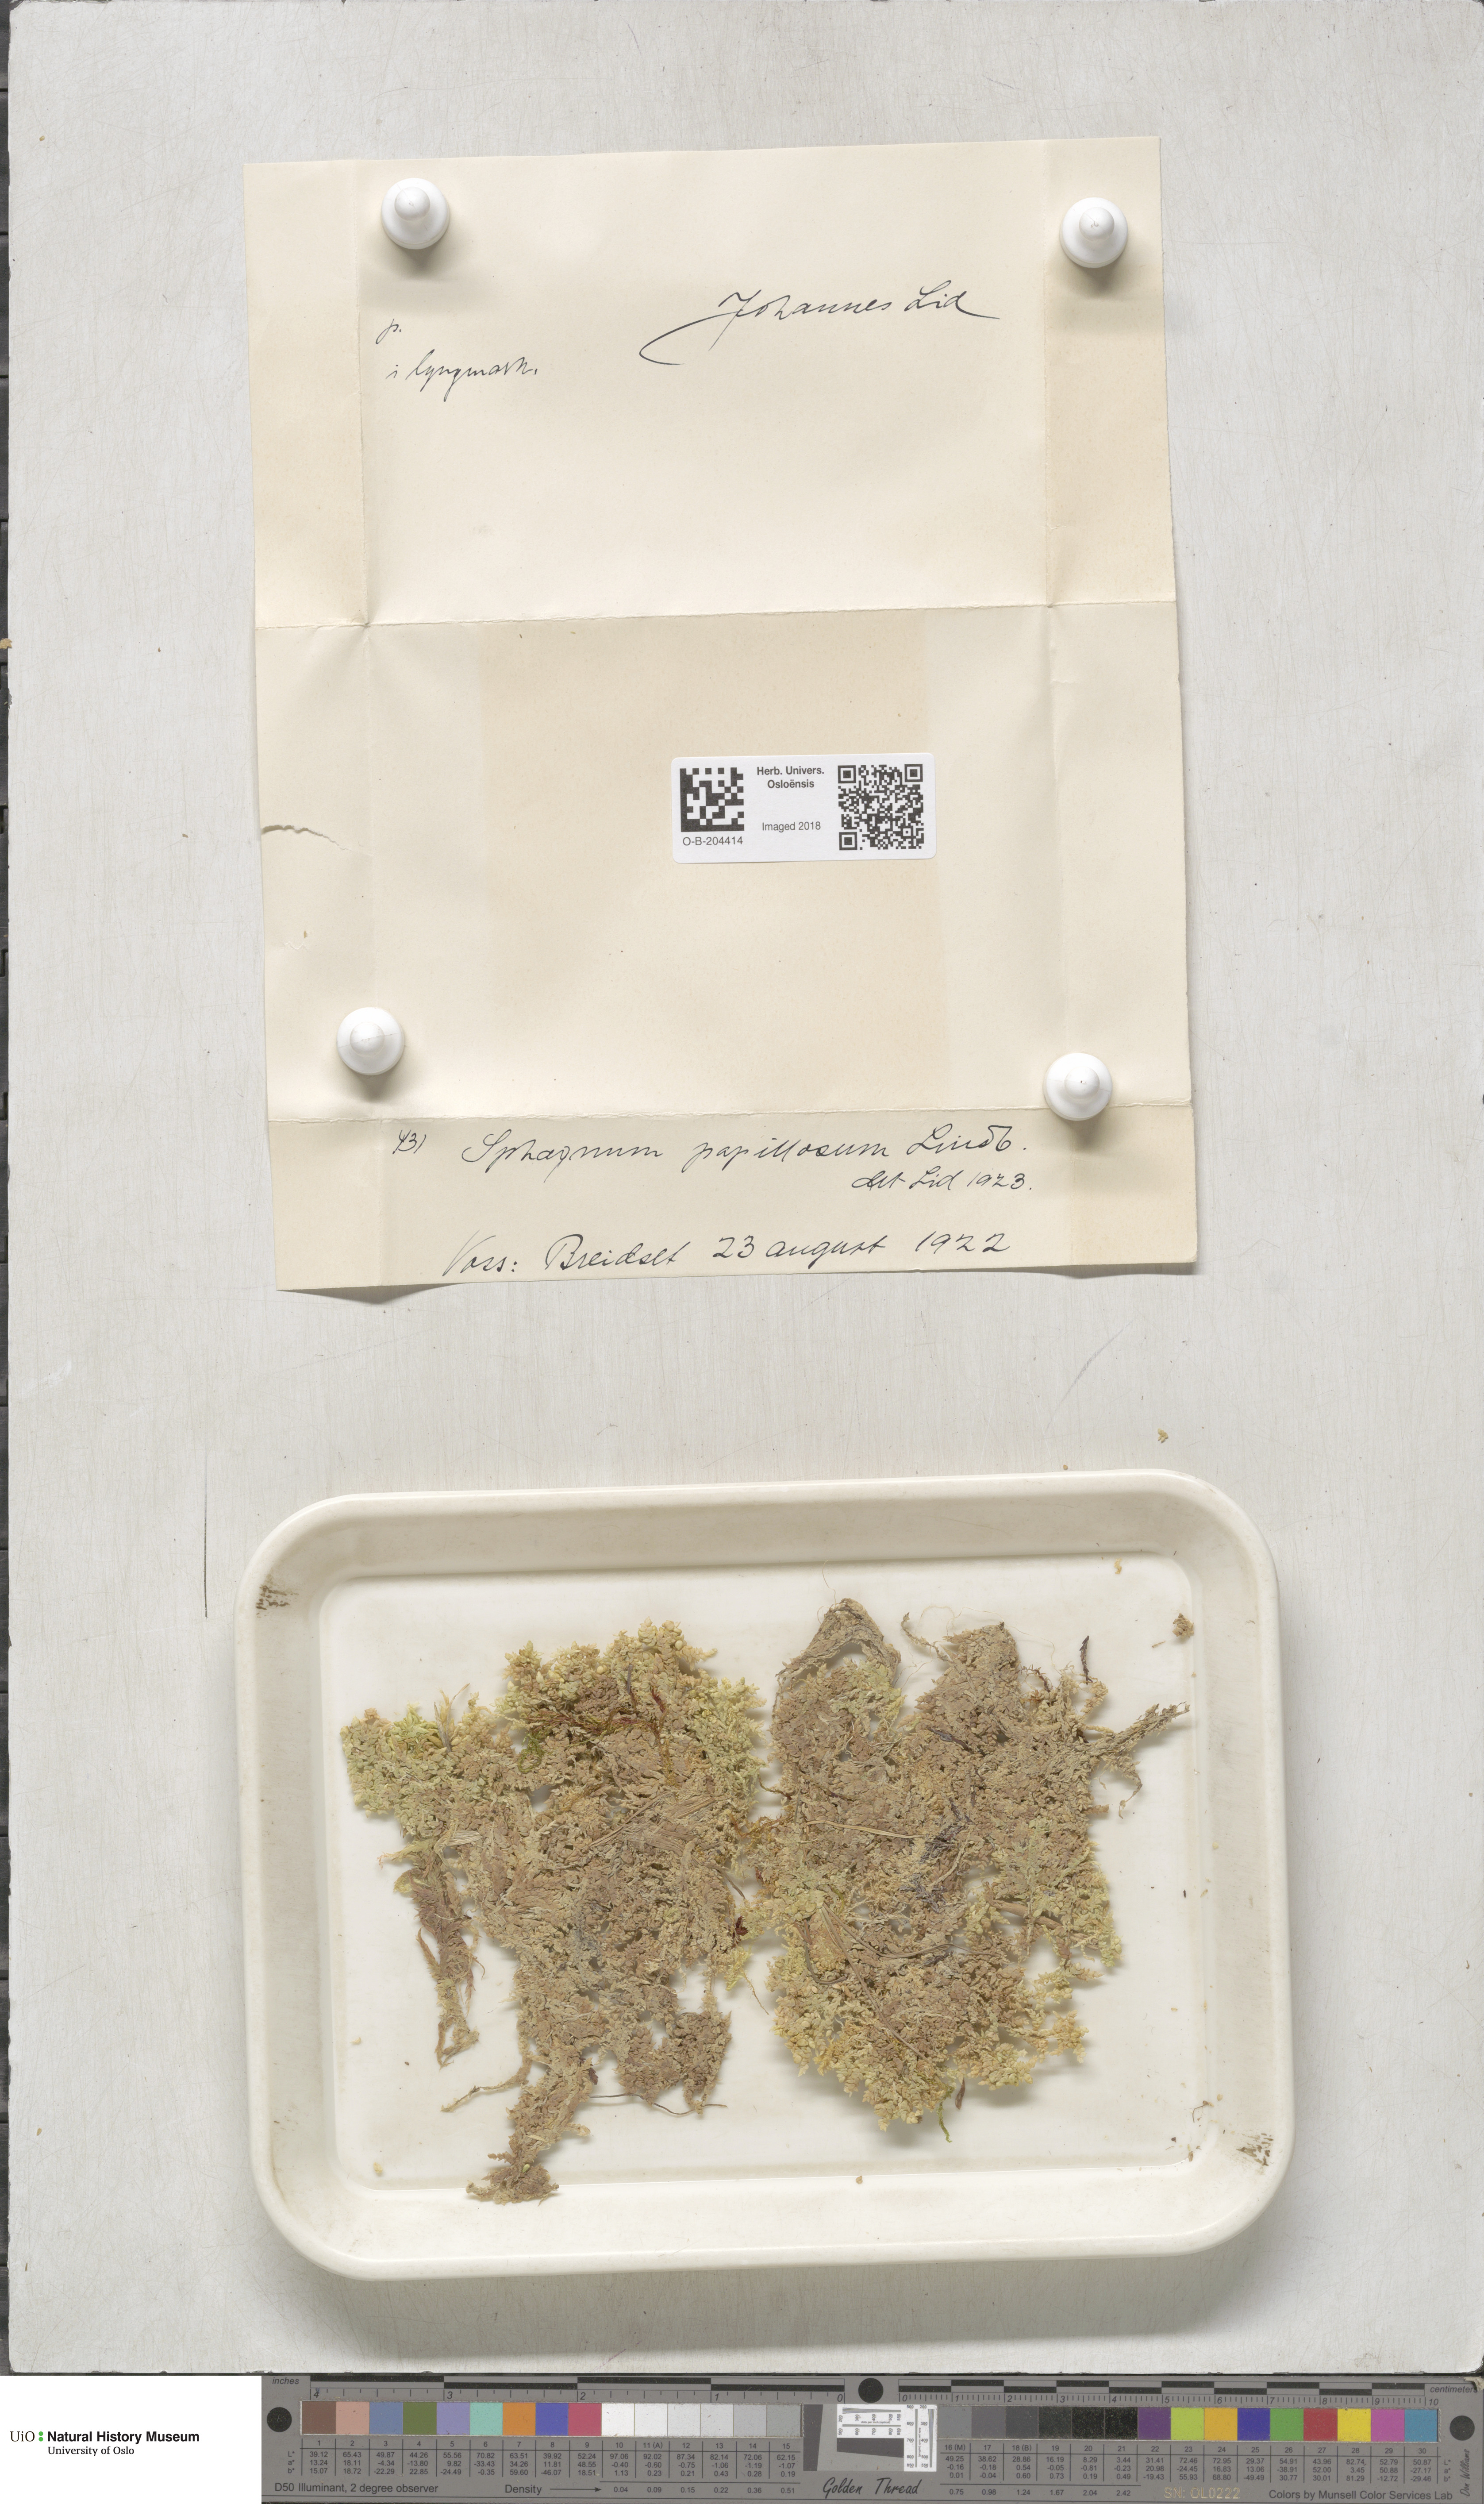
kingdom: Plantae
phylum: Bryophyta
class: Sphagnopsida
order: Sphagnales
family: Sphagnaceae
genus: Sphagnum
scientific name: Sphagnum papillosum
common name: Papillose peat moss
